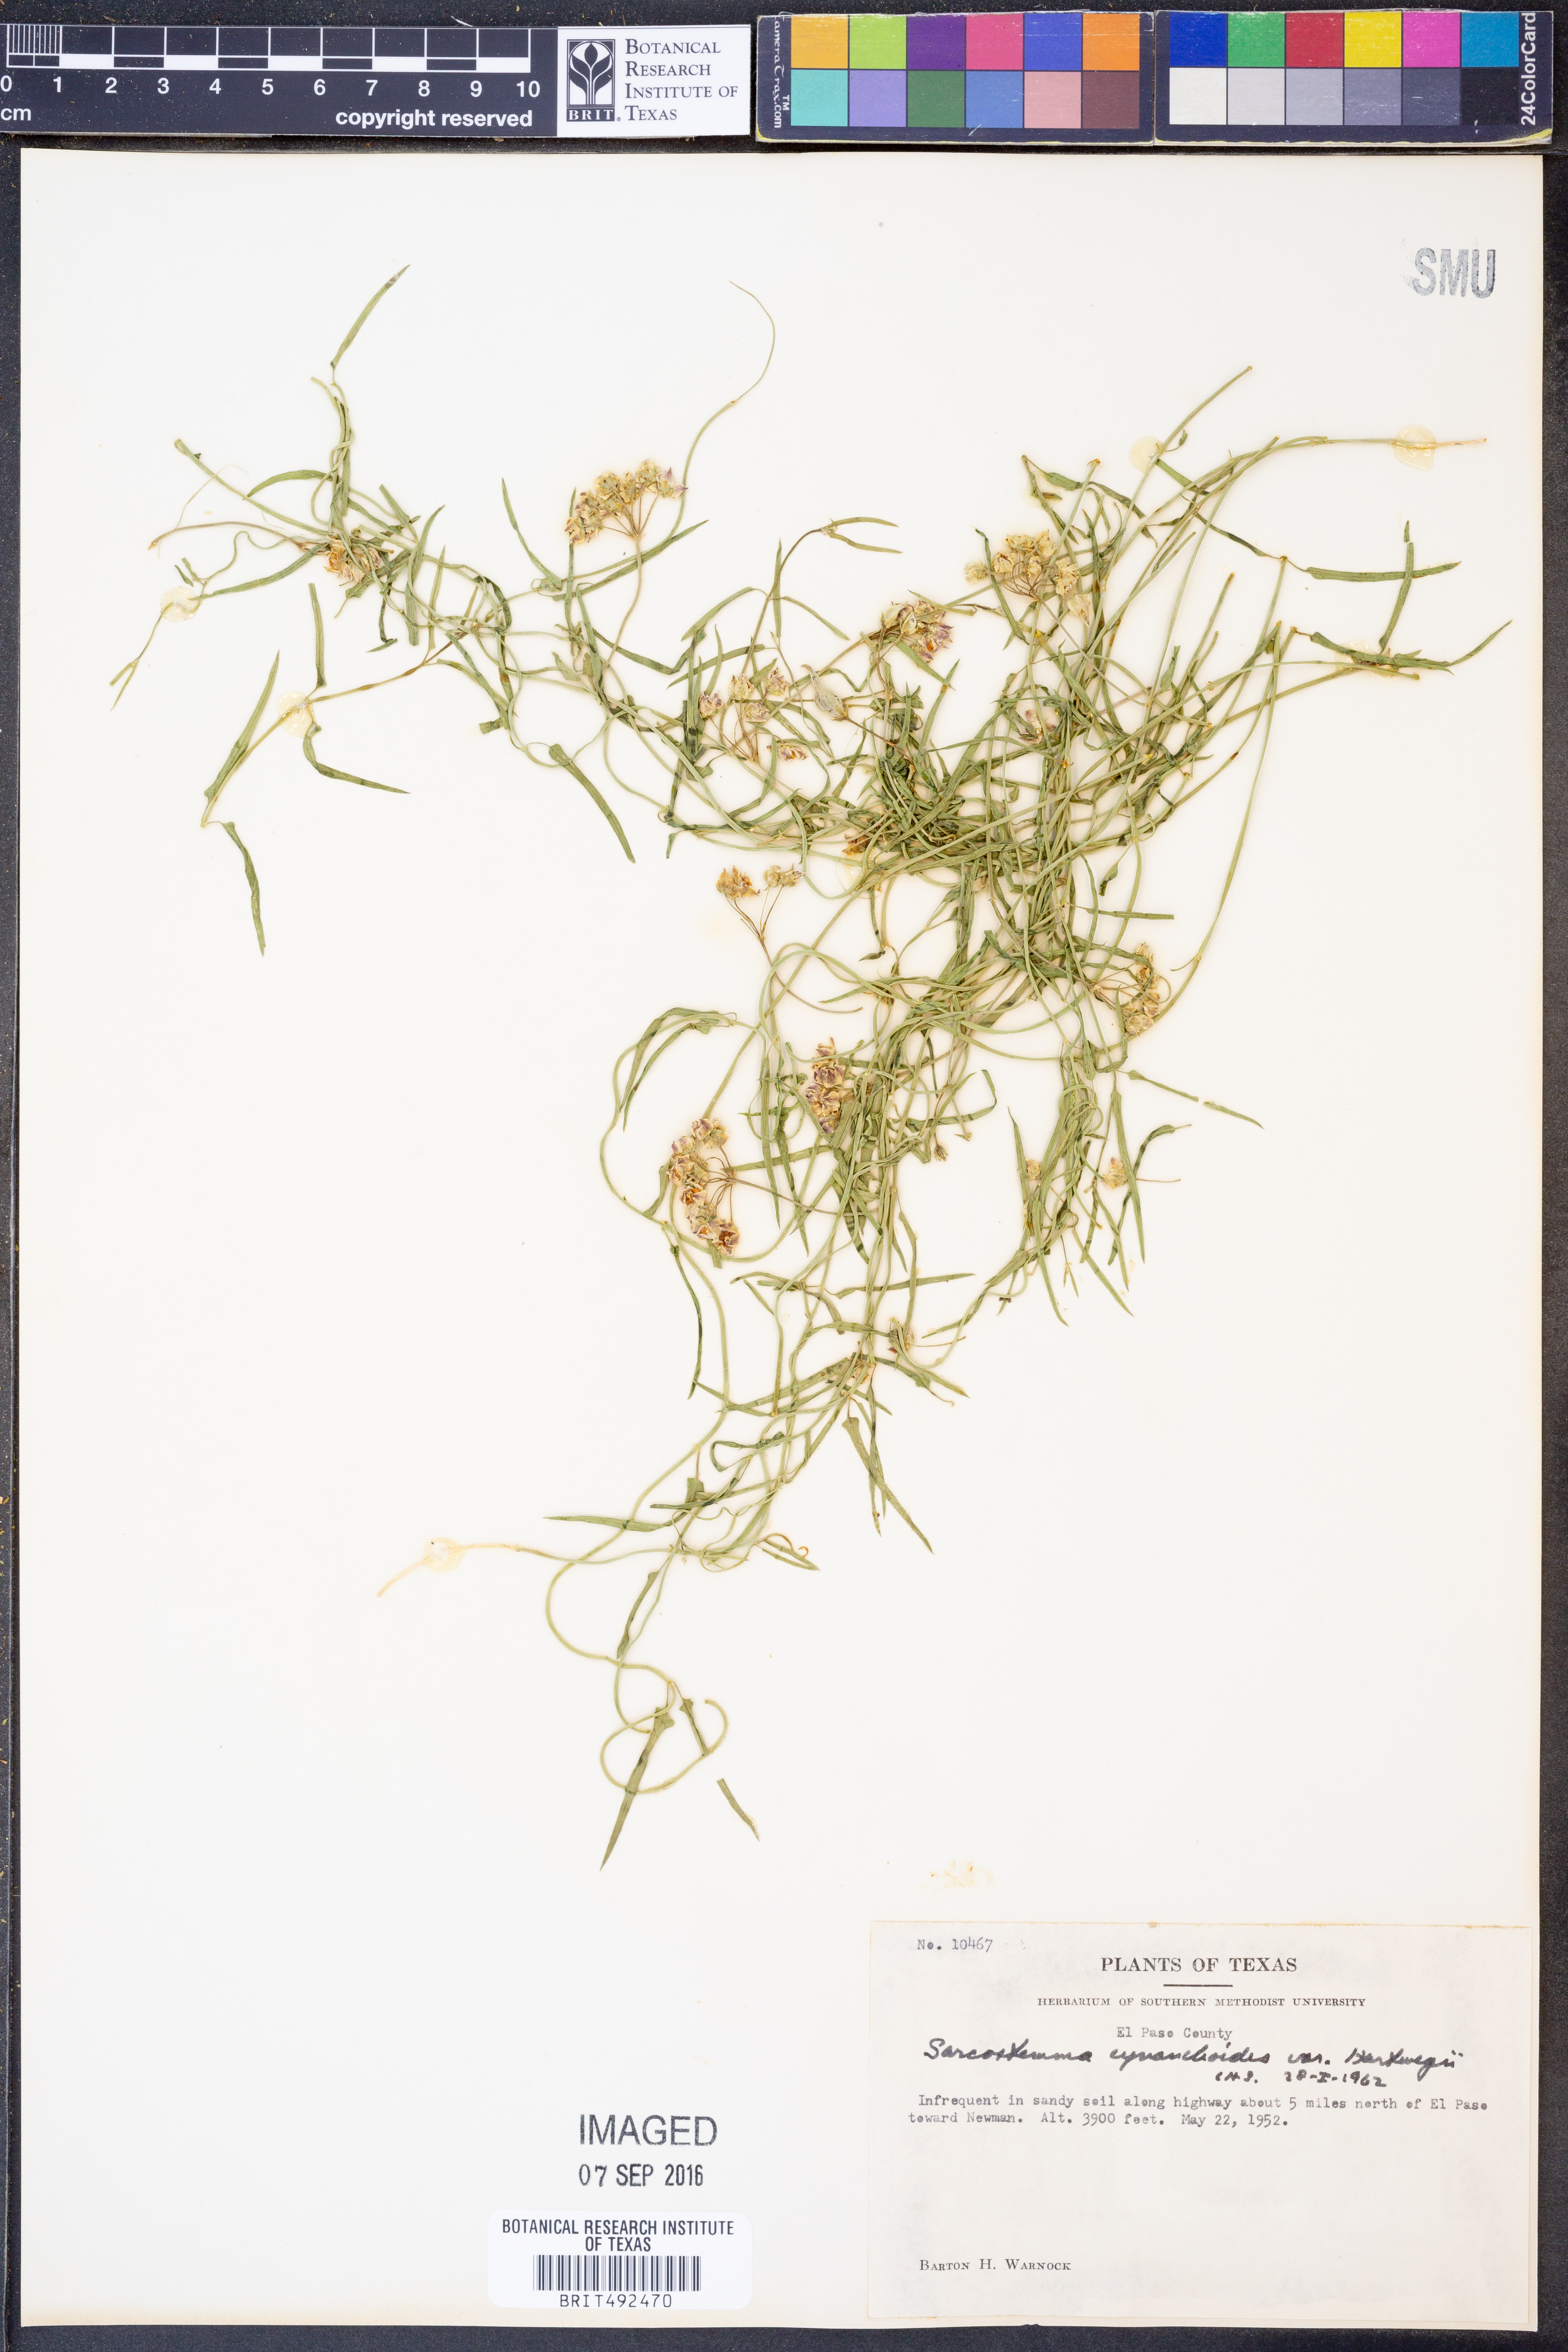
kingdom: Plantae
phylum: Tracheophyta
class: Magnoliopsida
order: Gentianales
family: Apocynaceae
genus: Funastrum
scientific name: Funastrum heterophyllum
